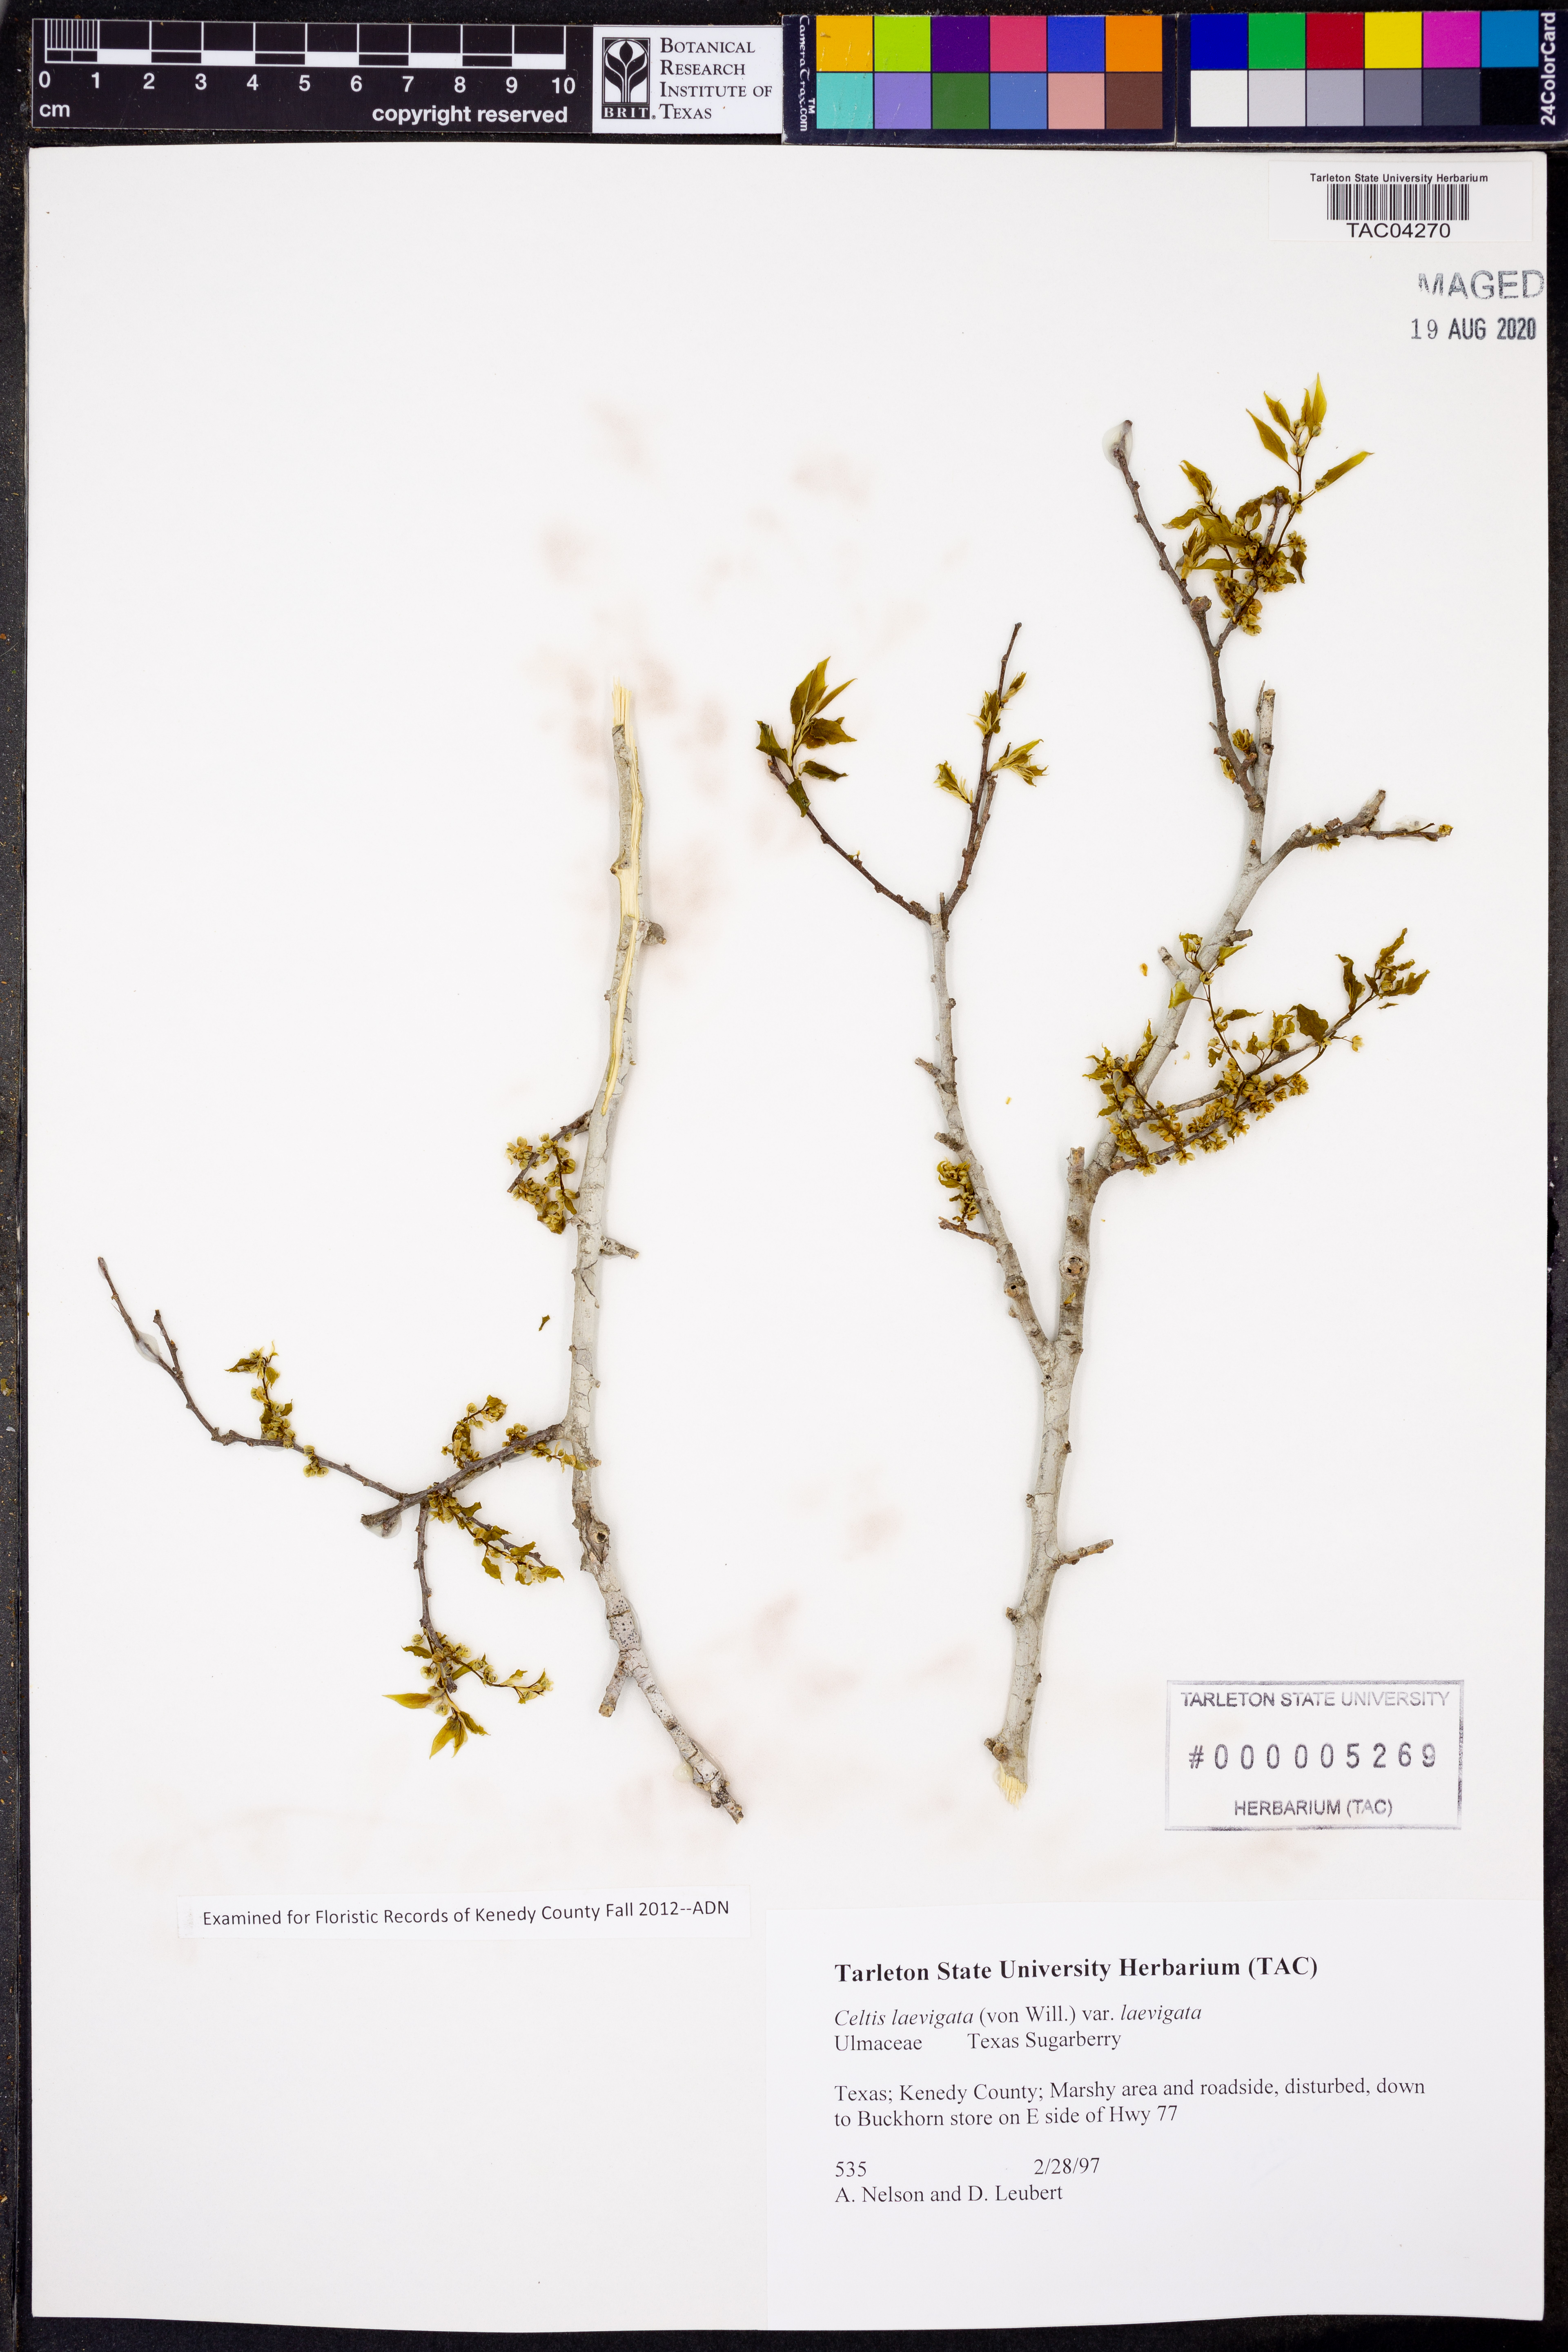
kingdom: Plantae
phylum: Tracheophyta
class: Magnoliopsida
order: Rosales
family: Cannabaceae
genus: Celtis
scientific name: Celtis laevigata
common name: Sugarberry
